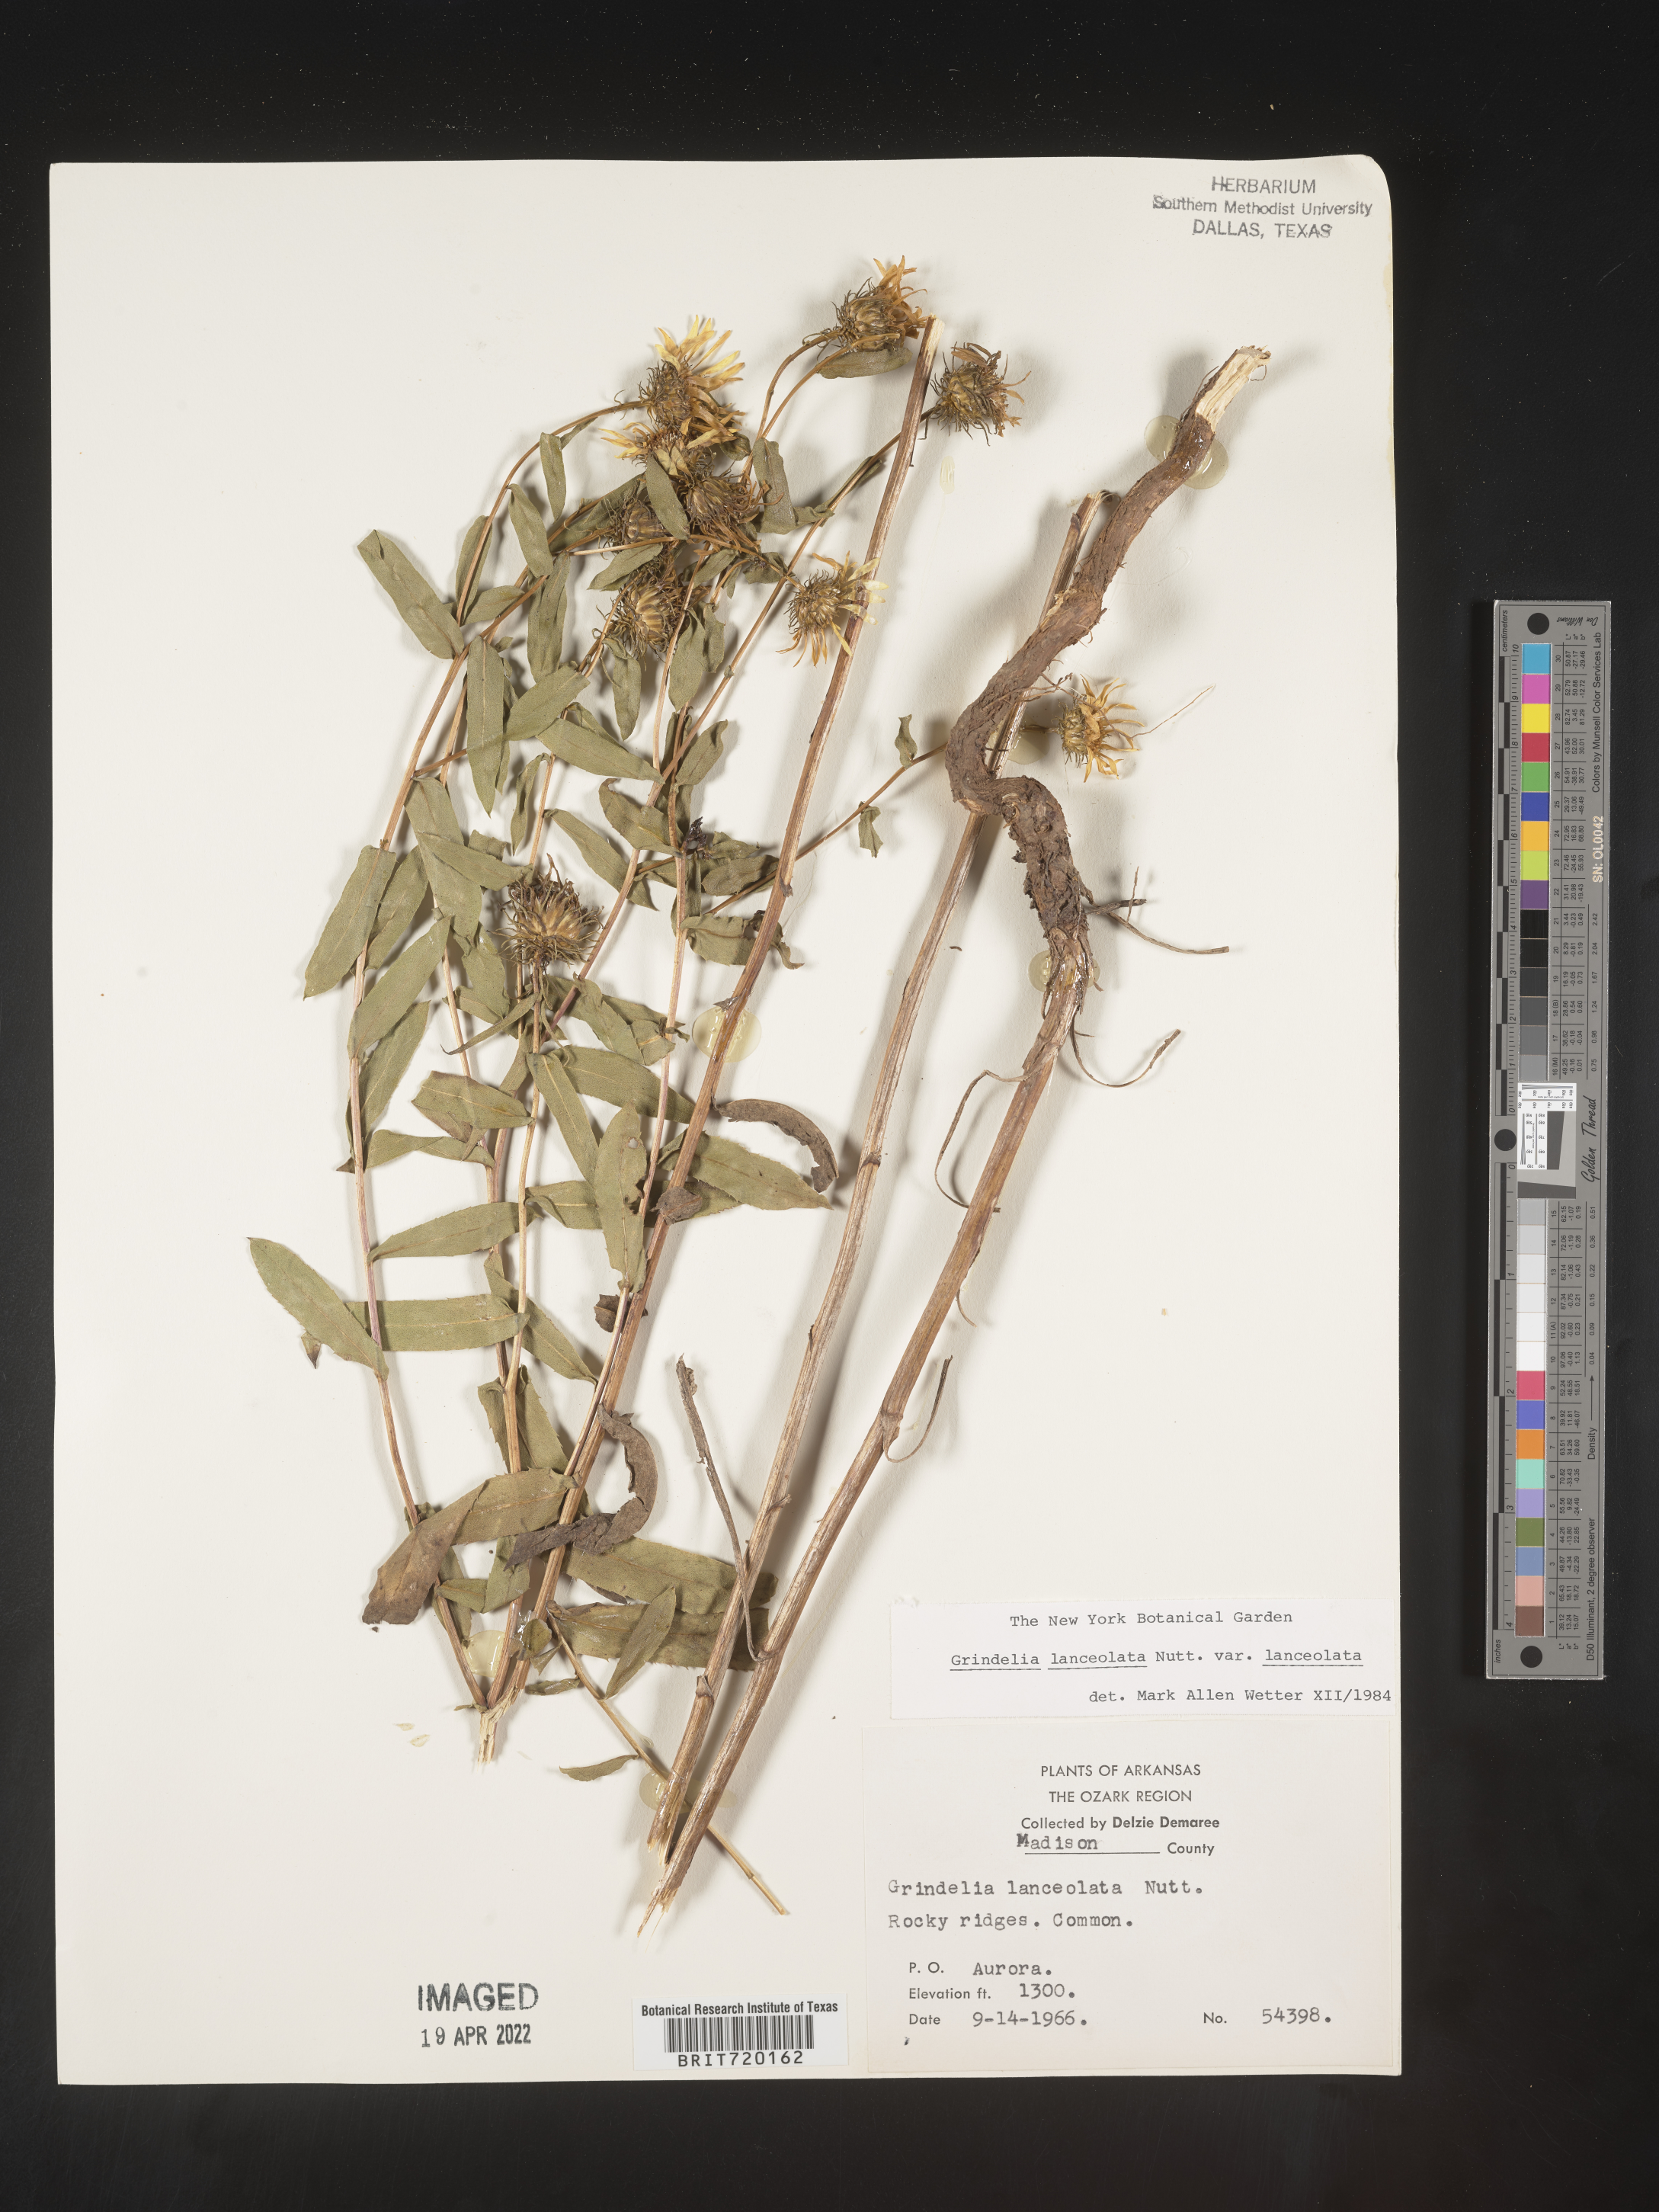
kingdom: Plantae
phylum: Tracheophyta
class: Magnoliopsida
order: Asterales
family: Asteraceae
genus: Grindelia
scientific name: Grindelia lanceolata
